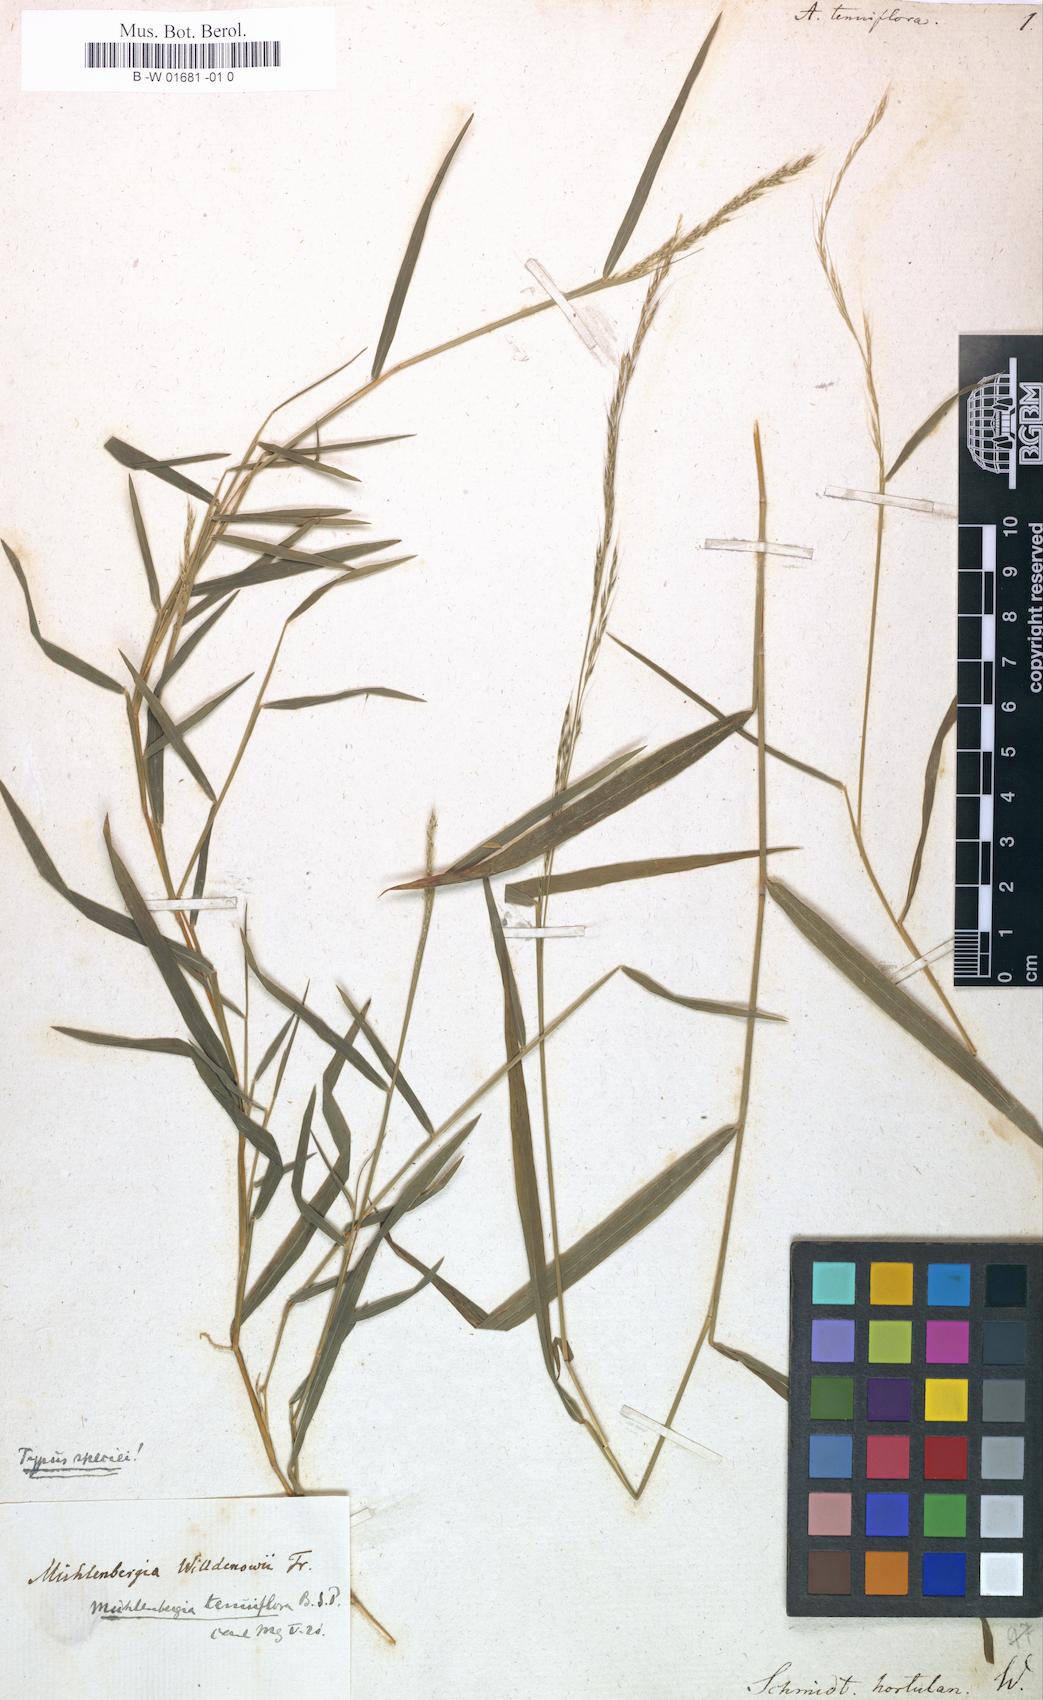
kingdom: Plantae
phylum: Tracheophyta
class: Liliopsida
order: Poales
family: Poaceae
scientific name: Poaceae
